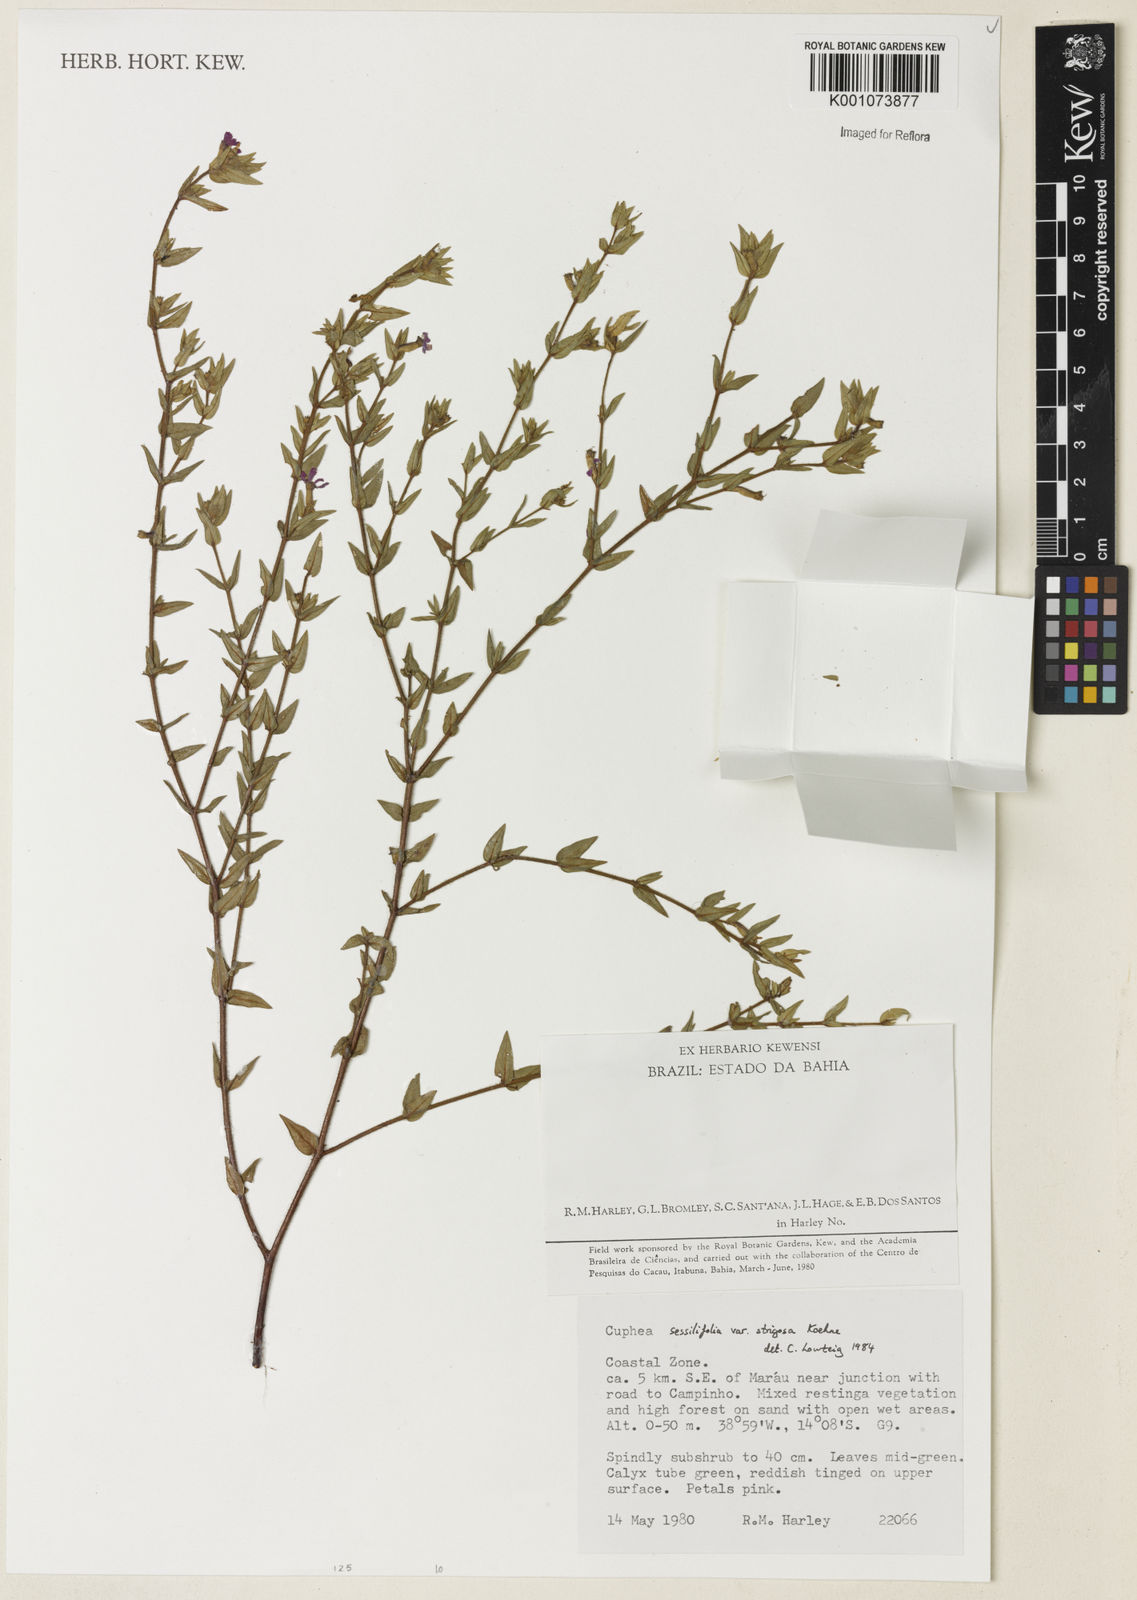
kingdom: Plantae
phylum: Tracheophyta
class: Magnoliopsida
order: Myrtales
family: Lythraceae
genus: Cuphea
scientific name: Cuphea sessilifolia
